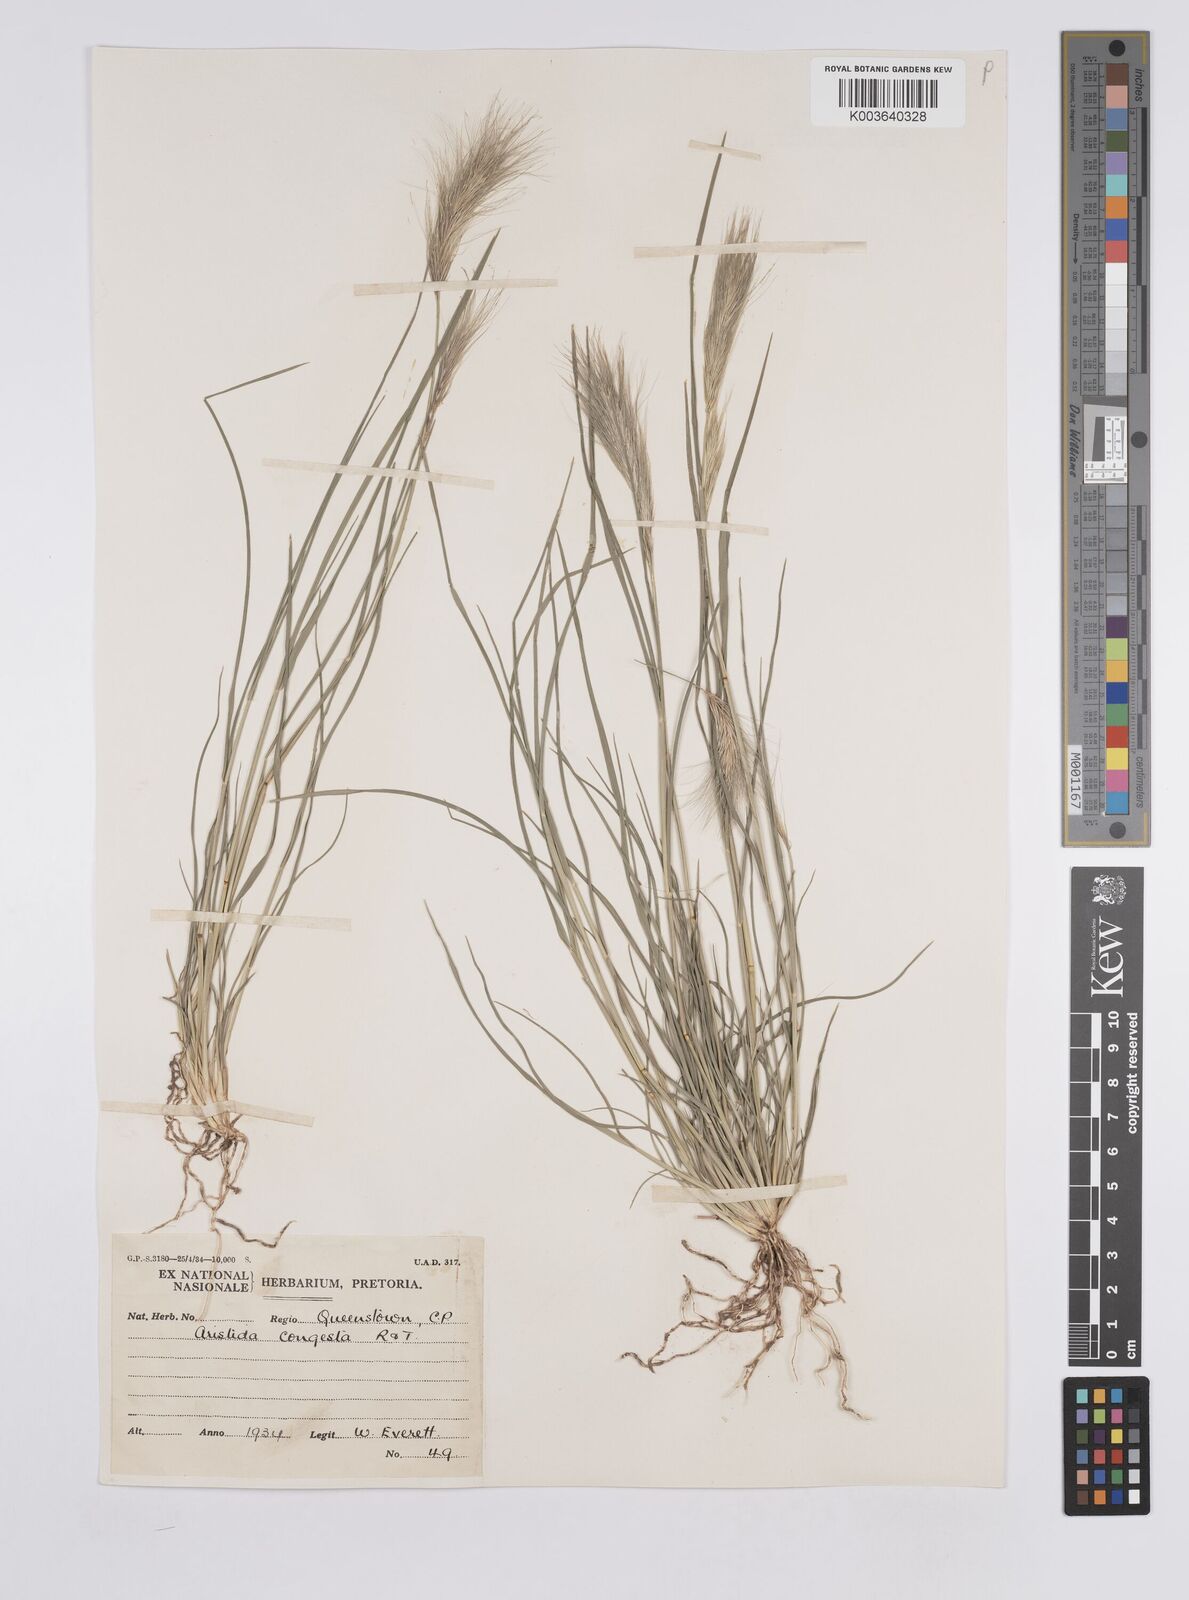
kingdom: Plantae
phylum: Tracheophyta
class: Liliopsida
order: Poales
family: Poaceae
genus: Aristida
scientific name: Aristida congesta
